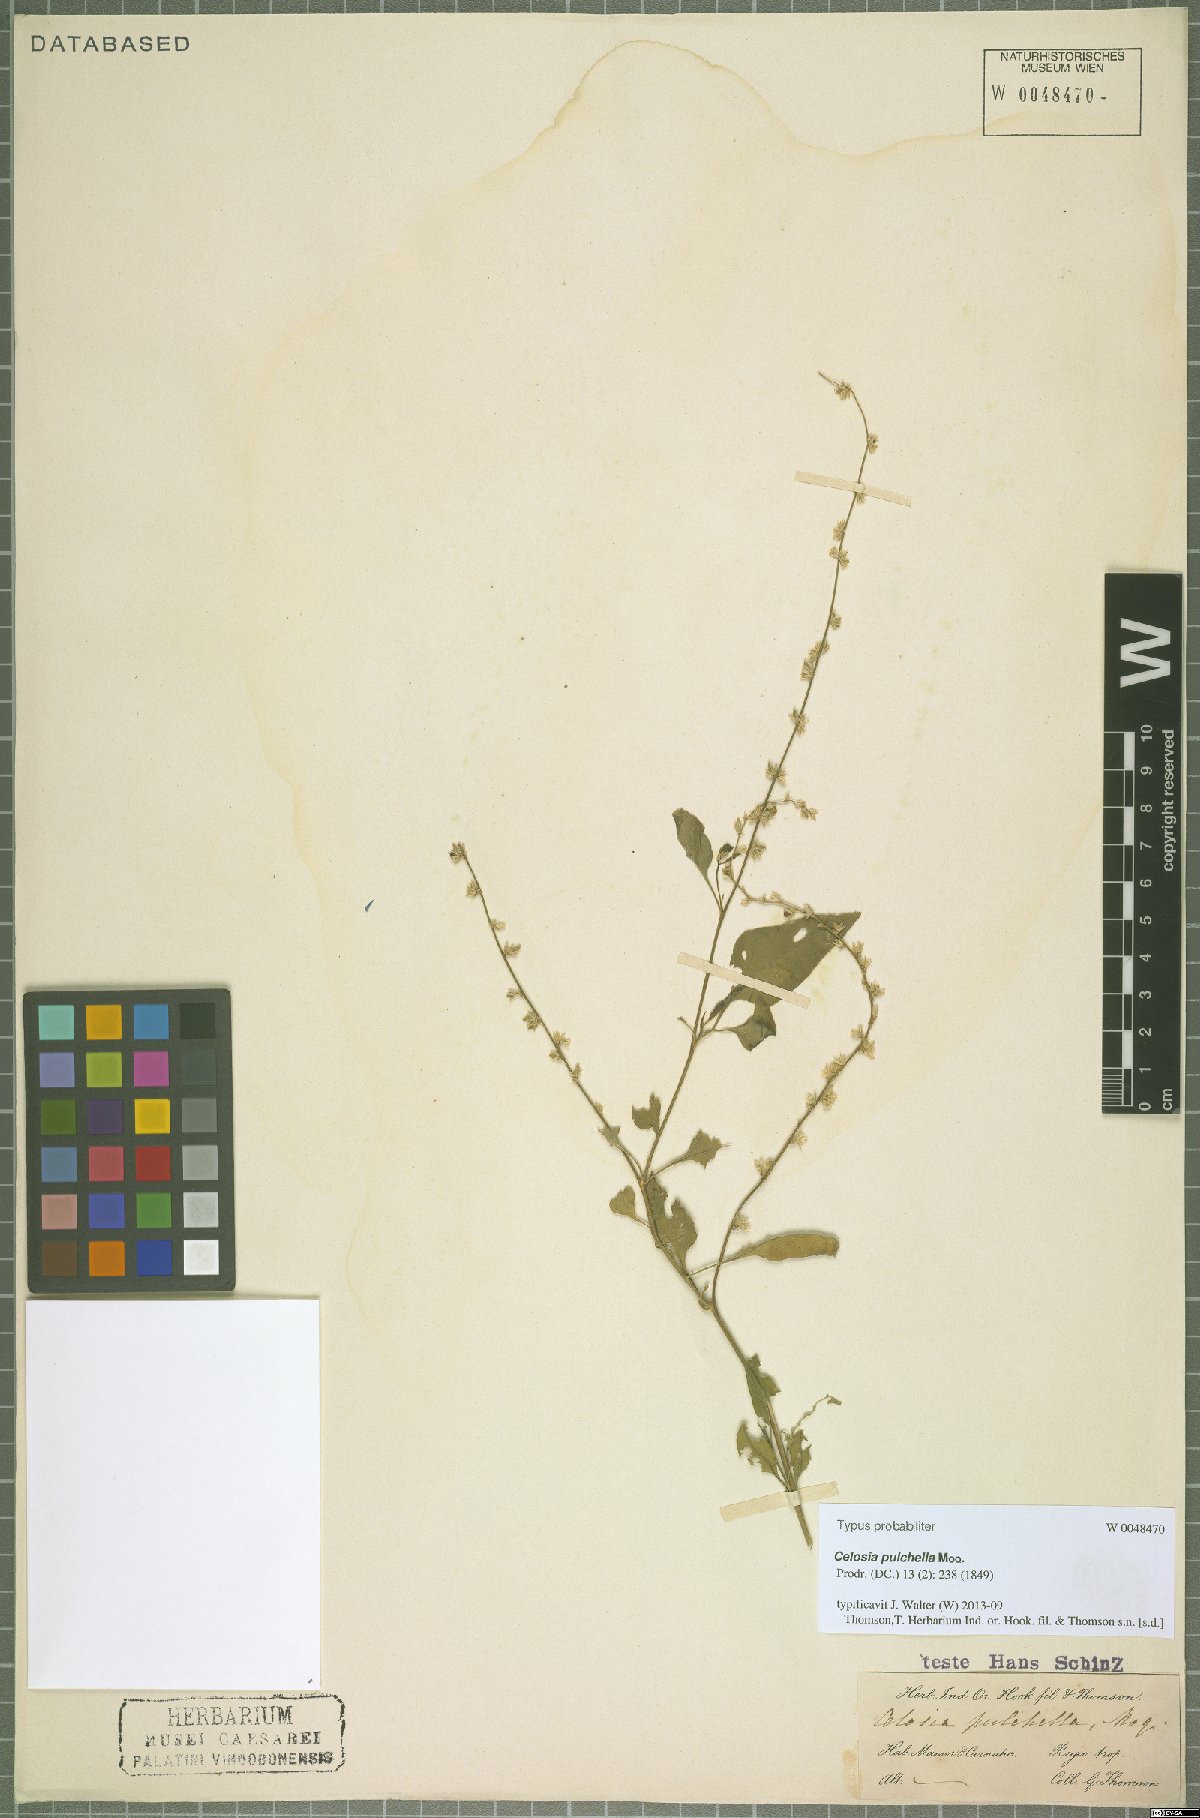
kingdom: Plantae
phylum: Tracheophyta
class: Magnoliopsida
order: Caryophyllales
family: Amaranthaceae
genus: Celosia
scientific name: Celosia pulchella
